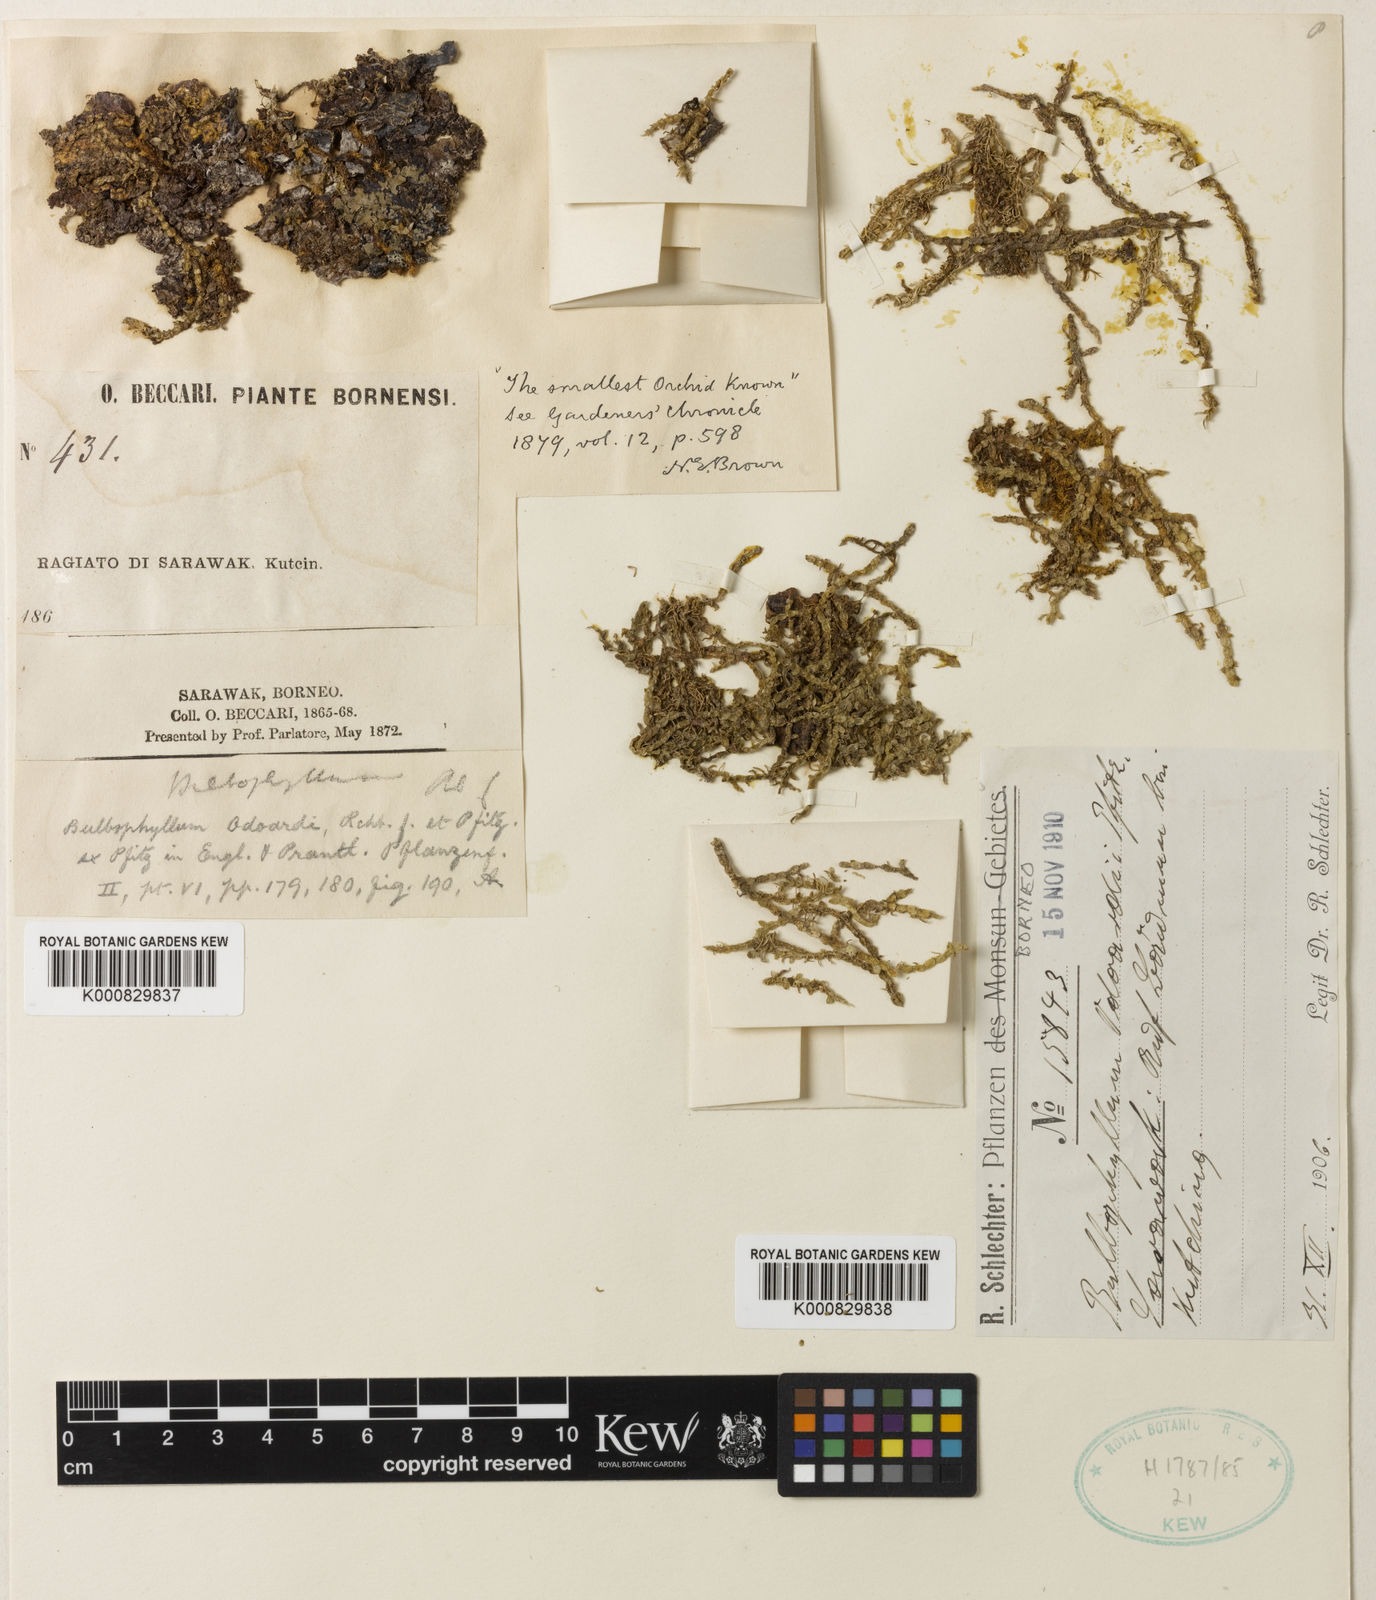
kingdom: Plantae
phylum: Tracheophyta
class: Liliopsida
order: Asparagales
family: Orchidaceae
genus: Bulbophyllum
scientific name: Bulbophyllum odoardi
